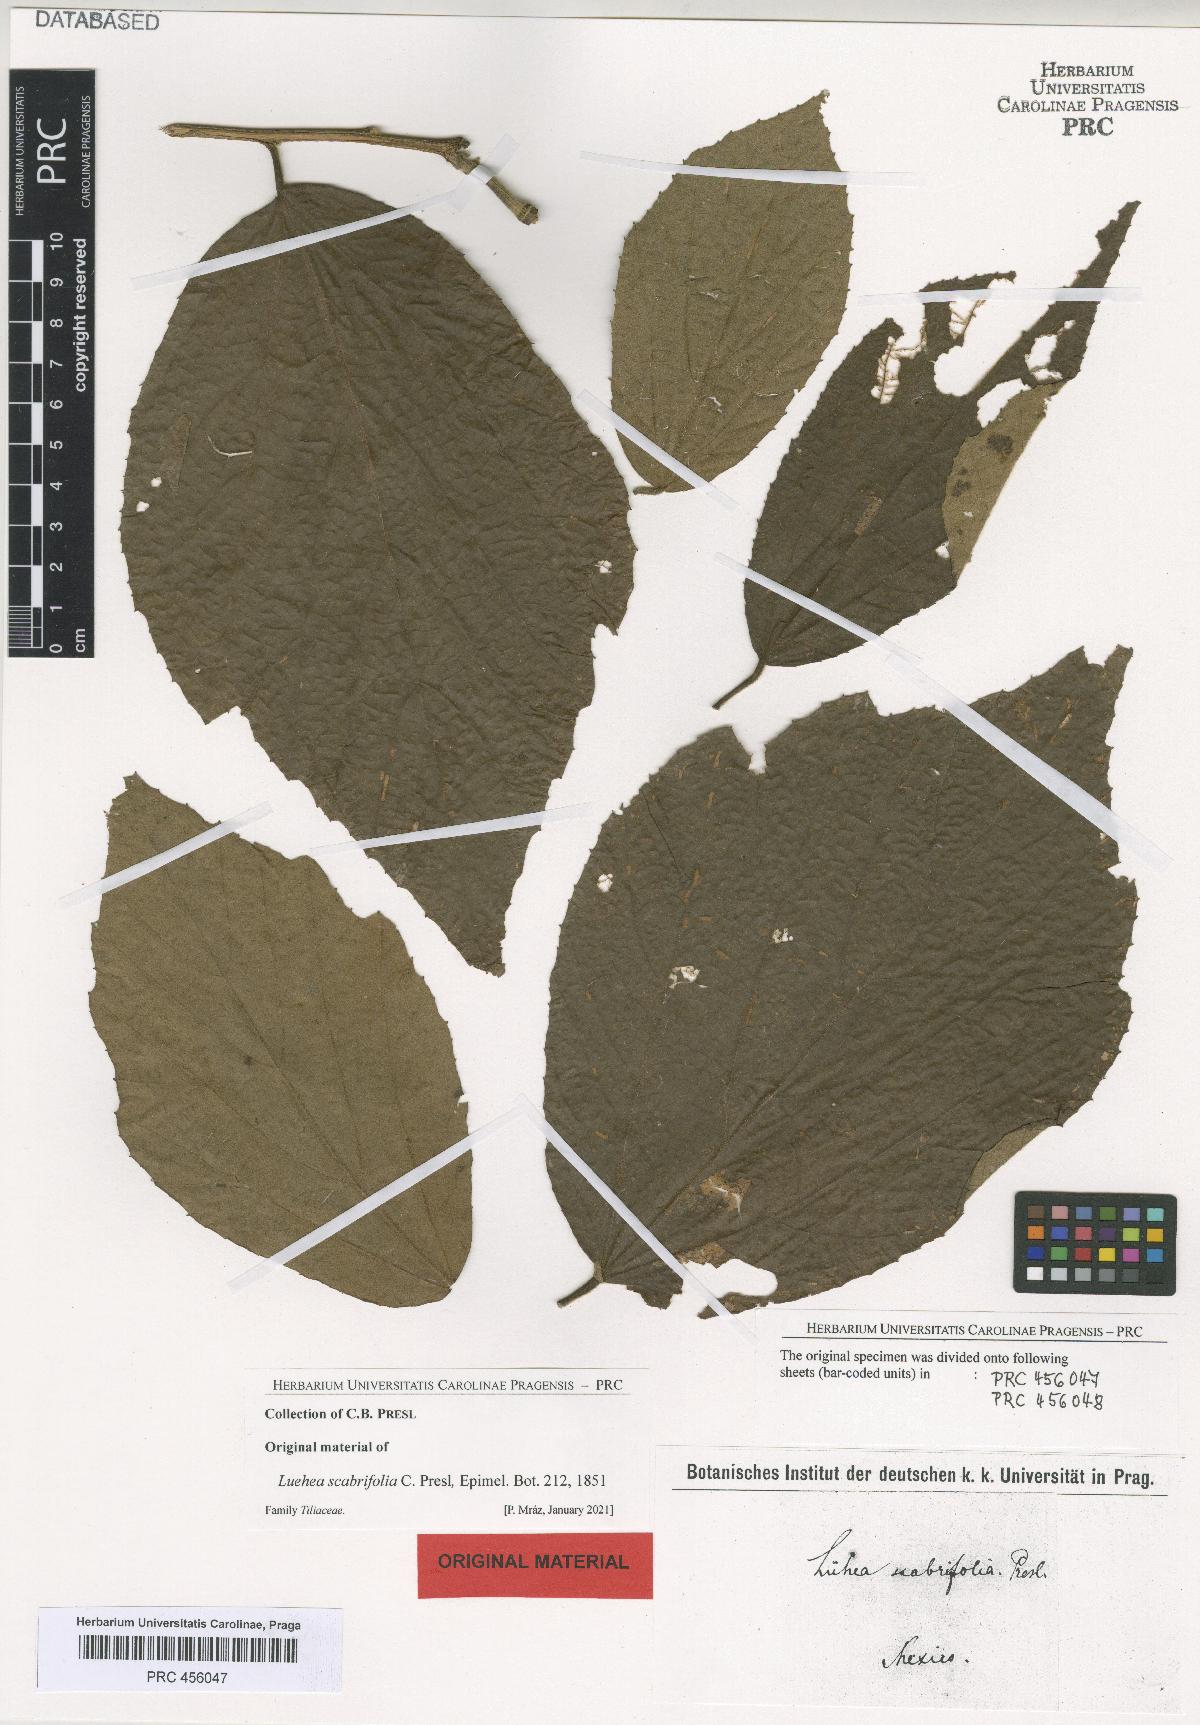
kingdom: Plantae
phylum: Tracheophyta
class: Magnoliopsida
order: Malvales
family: Malvaceae
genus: Luehea
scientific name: Luehea candida
